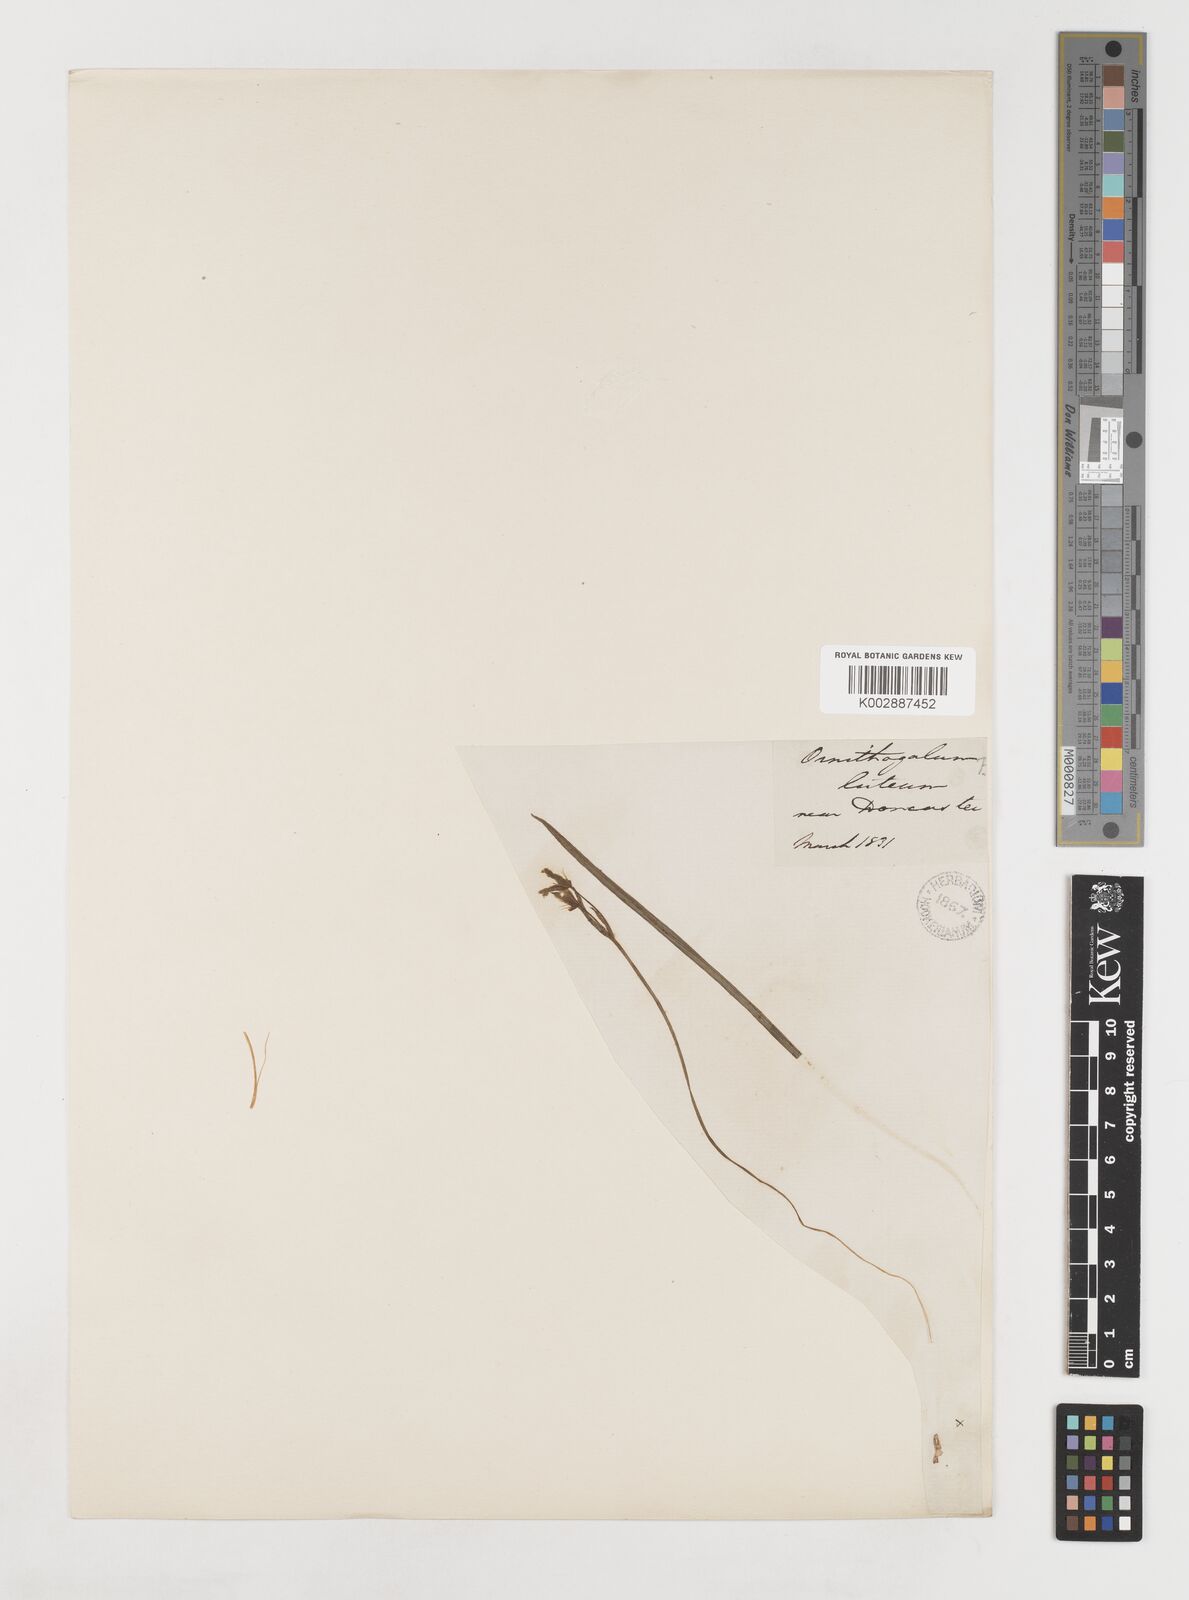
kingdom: Plantae
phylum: Tracheophyta
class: Liliopsida
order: Liliales
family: Liliaceae
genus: Gagea
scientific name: Gagea lutea
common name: Yellow star-of-bethlehem
